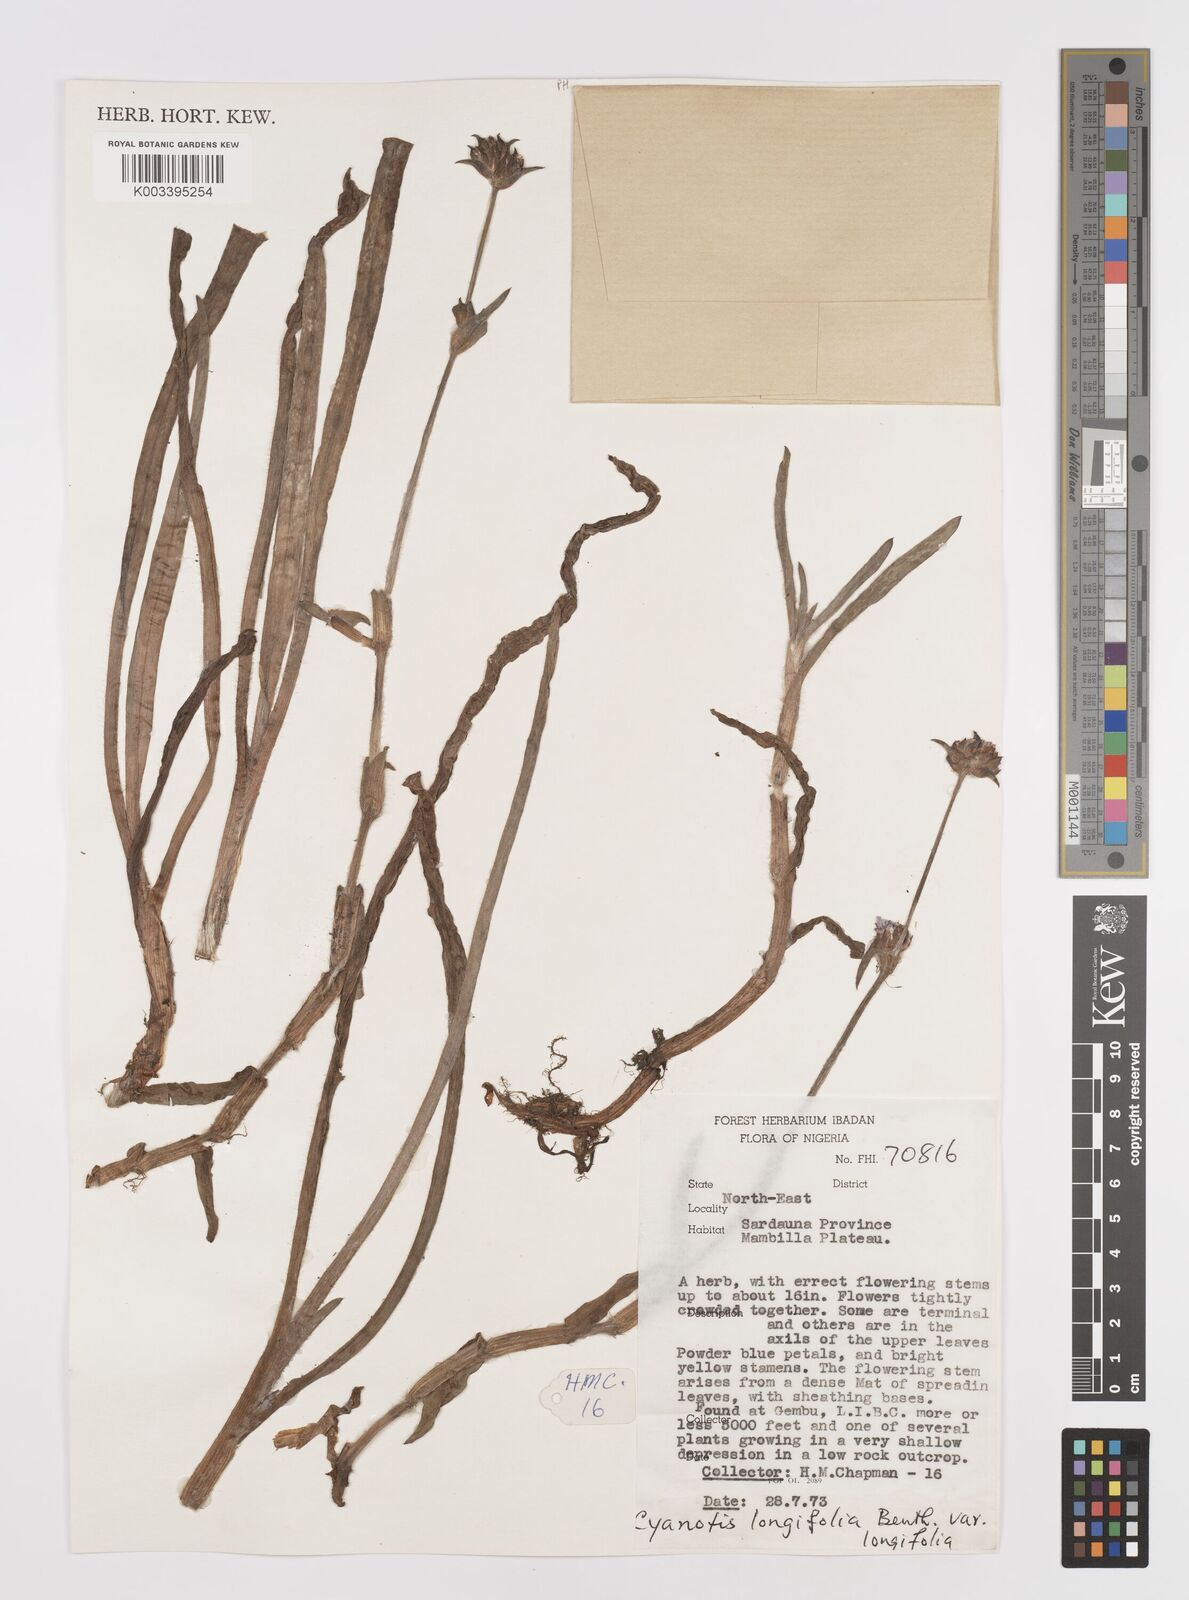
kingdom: Plantae
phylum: Tracheophyta
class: Liliopsida
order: Commelinales
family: Commelinaceae
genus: Cyanotis
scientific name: Cyanotis longifolia
